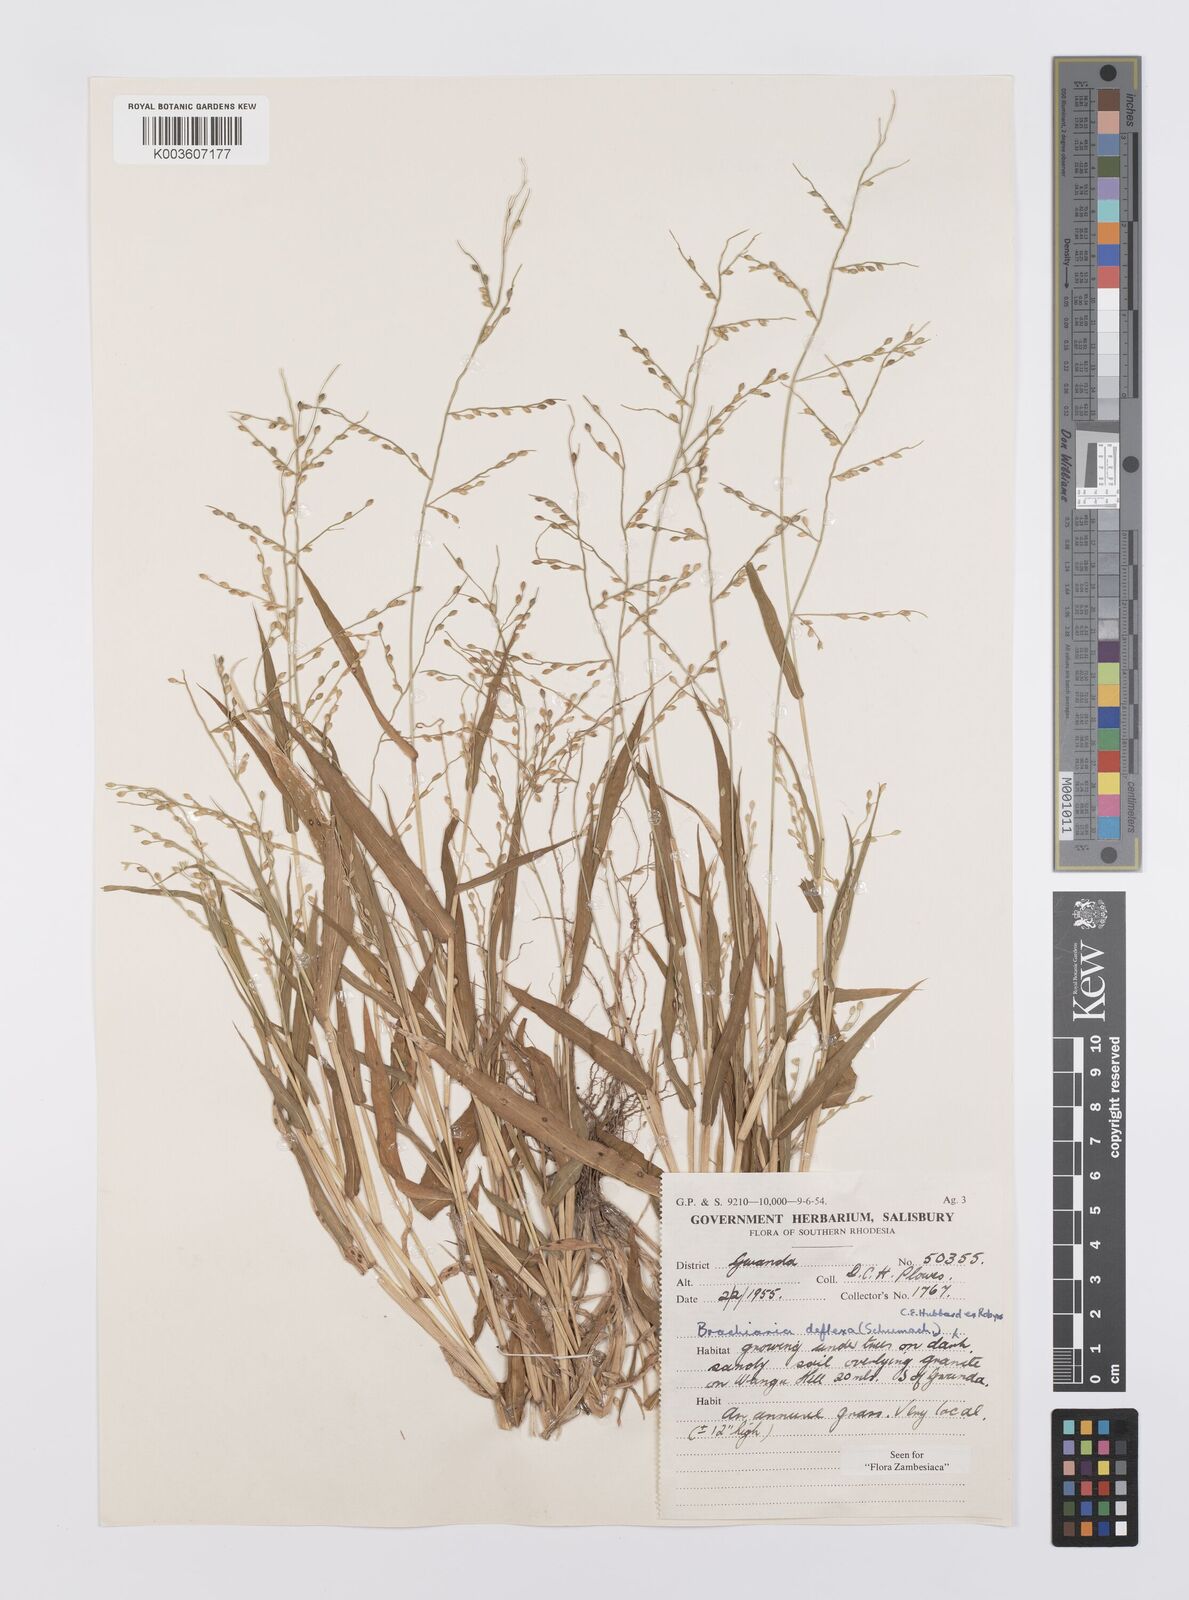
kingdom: Plantae
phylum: Tracheophyta
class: Liliopsida
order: Poales
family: Poaceae
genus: Urochloa
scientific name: Urochloa deflexa
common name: Guinea millet
